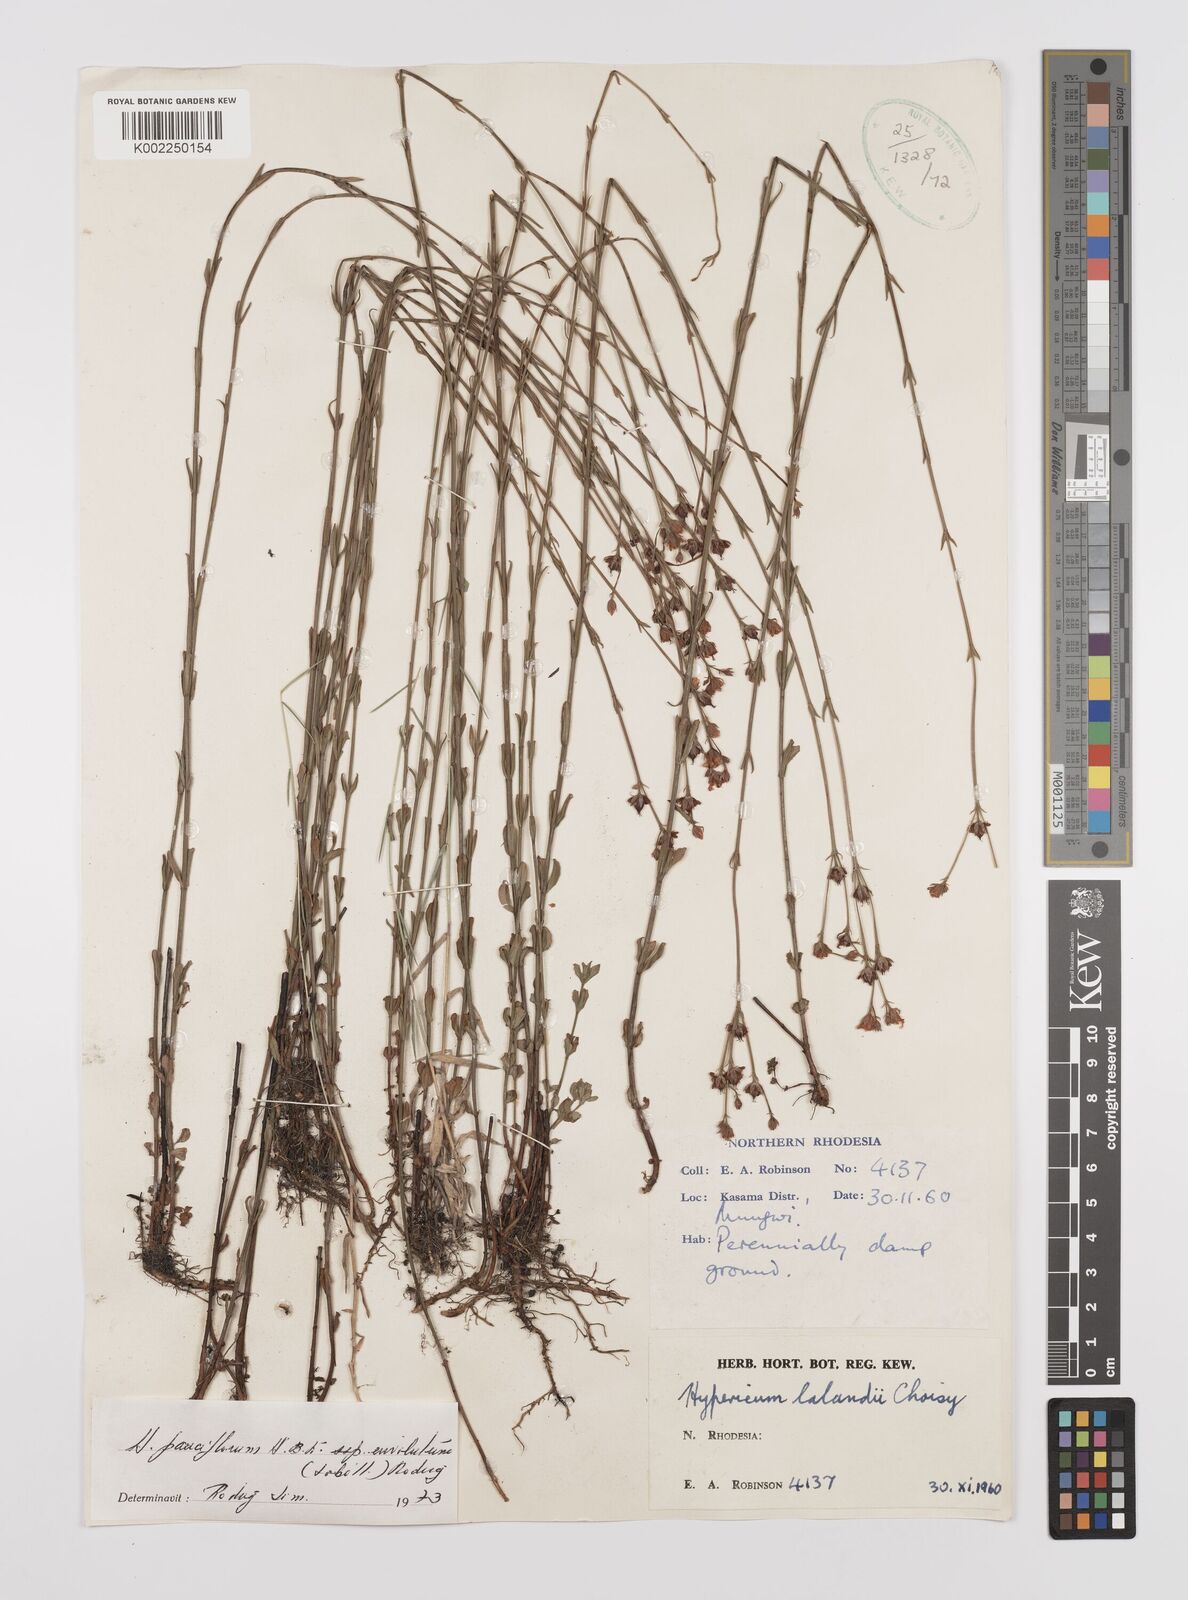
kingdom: Plantae
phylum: Tracheophyta
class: Magnoliopsida
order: Malpighiales
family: Hypericaceae
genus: Hypericum
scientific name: Hypericum lalandii
